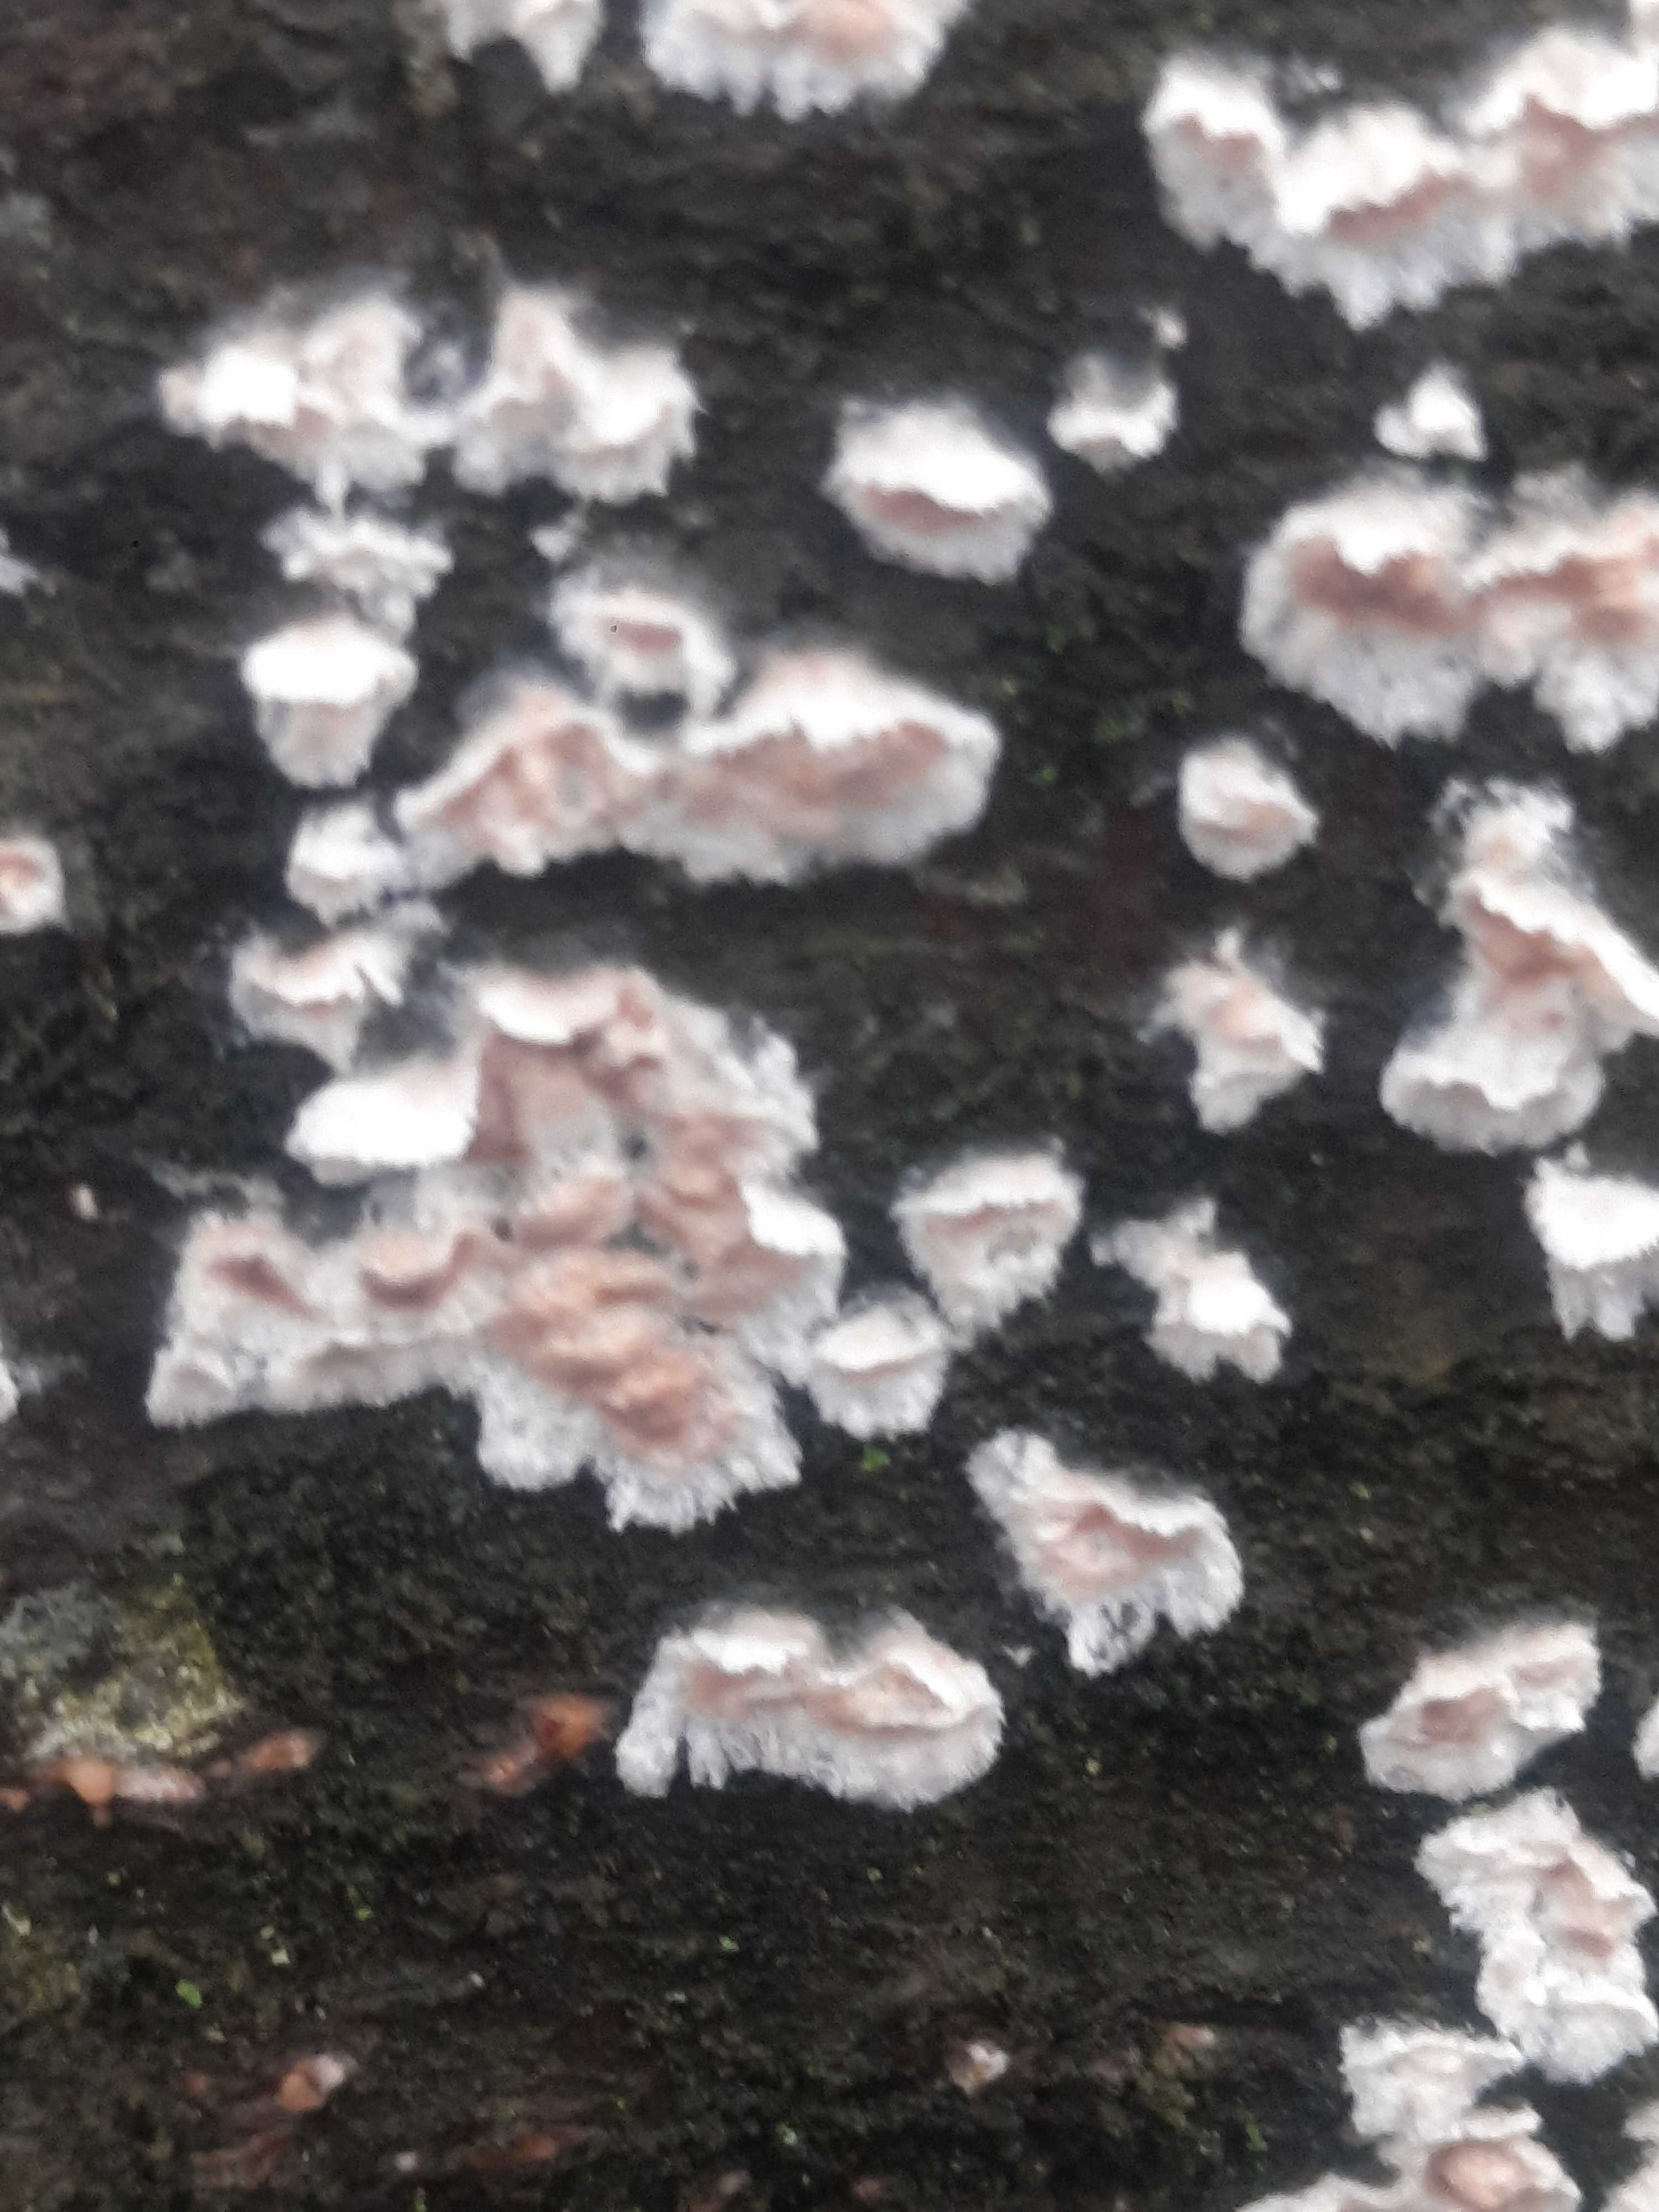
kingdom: Fungi
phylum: Basidiomycota
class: Agaricomycetes
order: Agaricales
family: Physalacriaceae
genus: Cylindrobasidium
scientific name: Cylindrobasidium evolvens
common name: sprækkehinde
